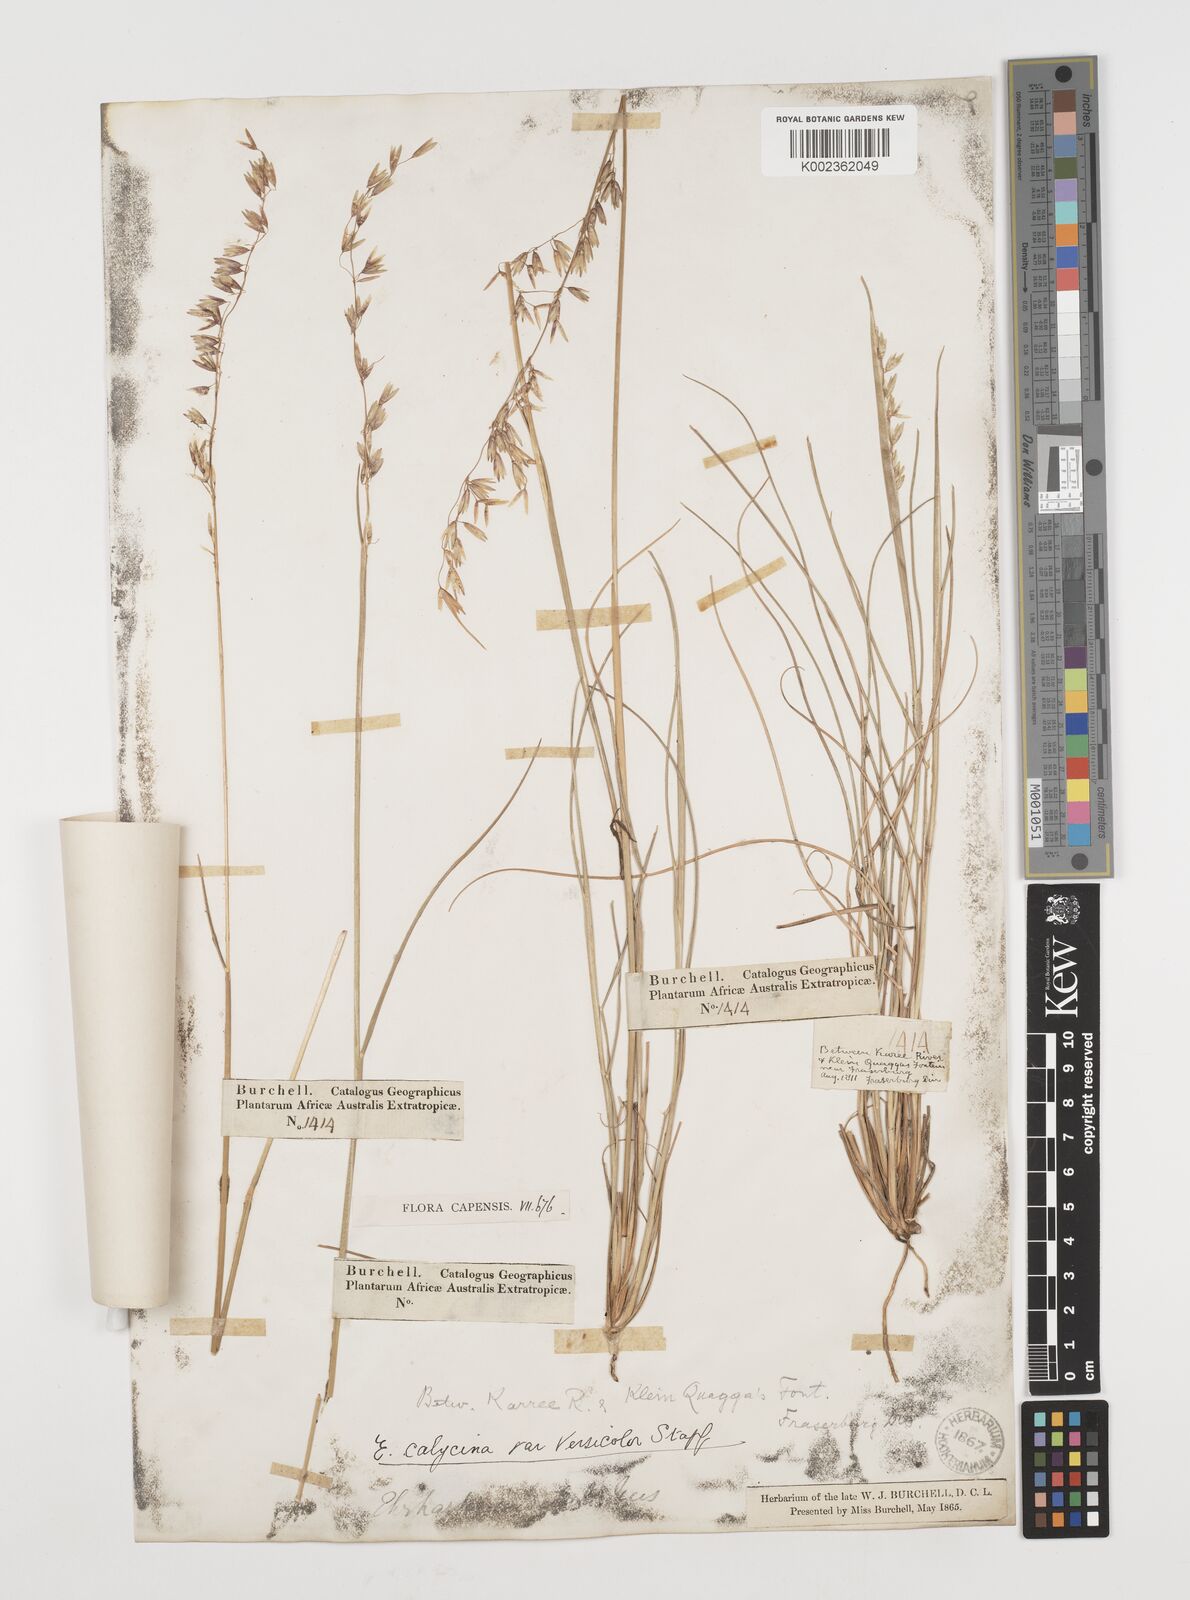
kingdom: Plantae
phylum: Tracheophyta
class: Liliopsida
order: Poales
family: Poaceae
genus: Ehrharta
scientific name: Ehrharta calycina
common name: Perennial veldtgrass
